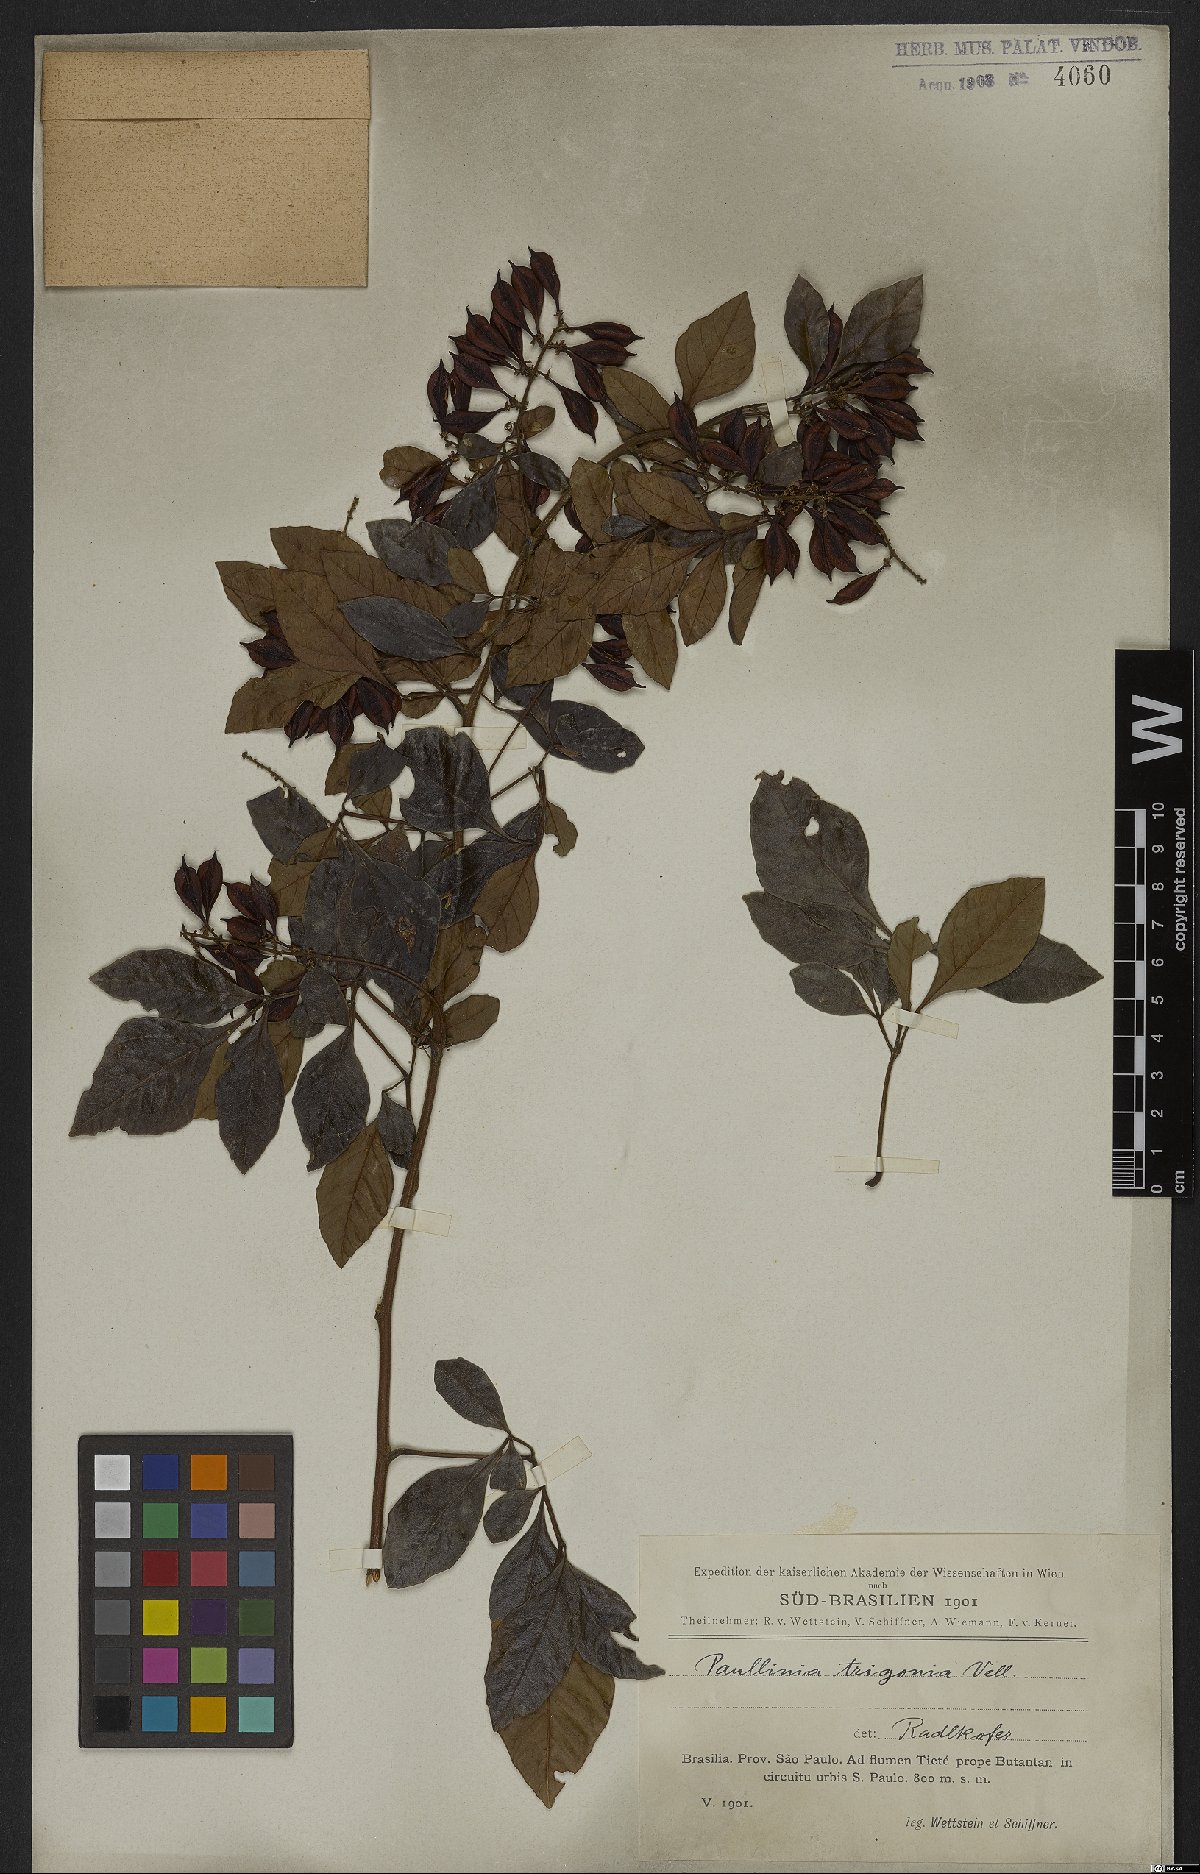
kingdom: Plantae
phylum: Tracheophyta
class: Magnoliopsida
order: Sapindales
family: Sapindaceae
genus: Paullinia
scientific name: Paullinia trigonia
